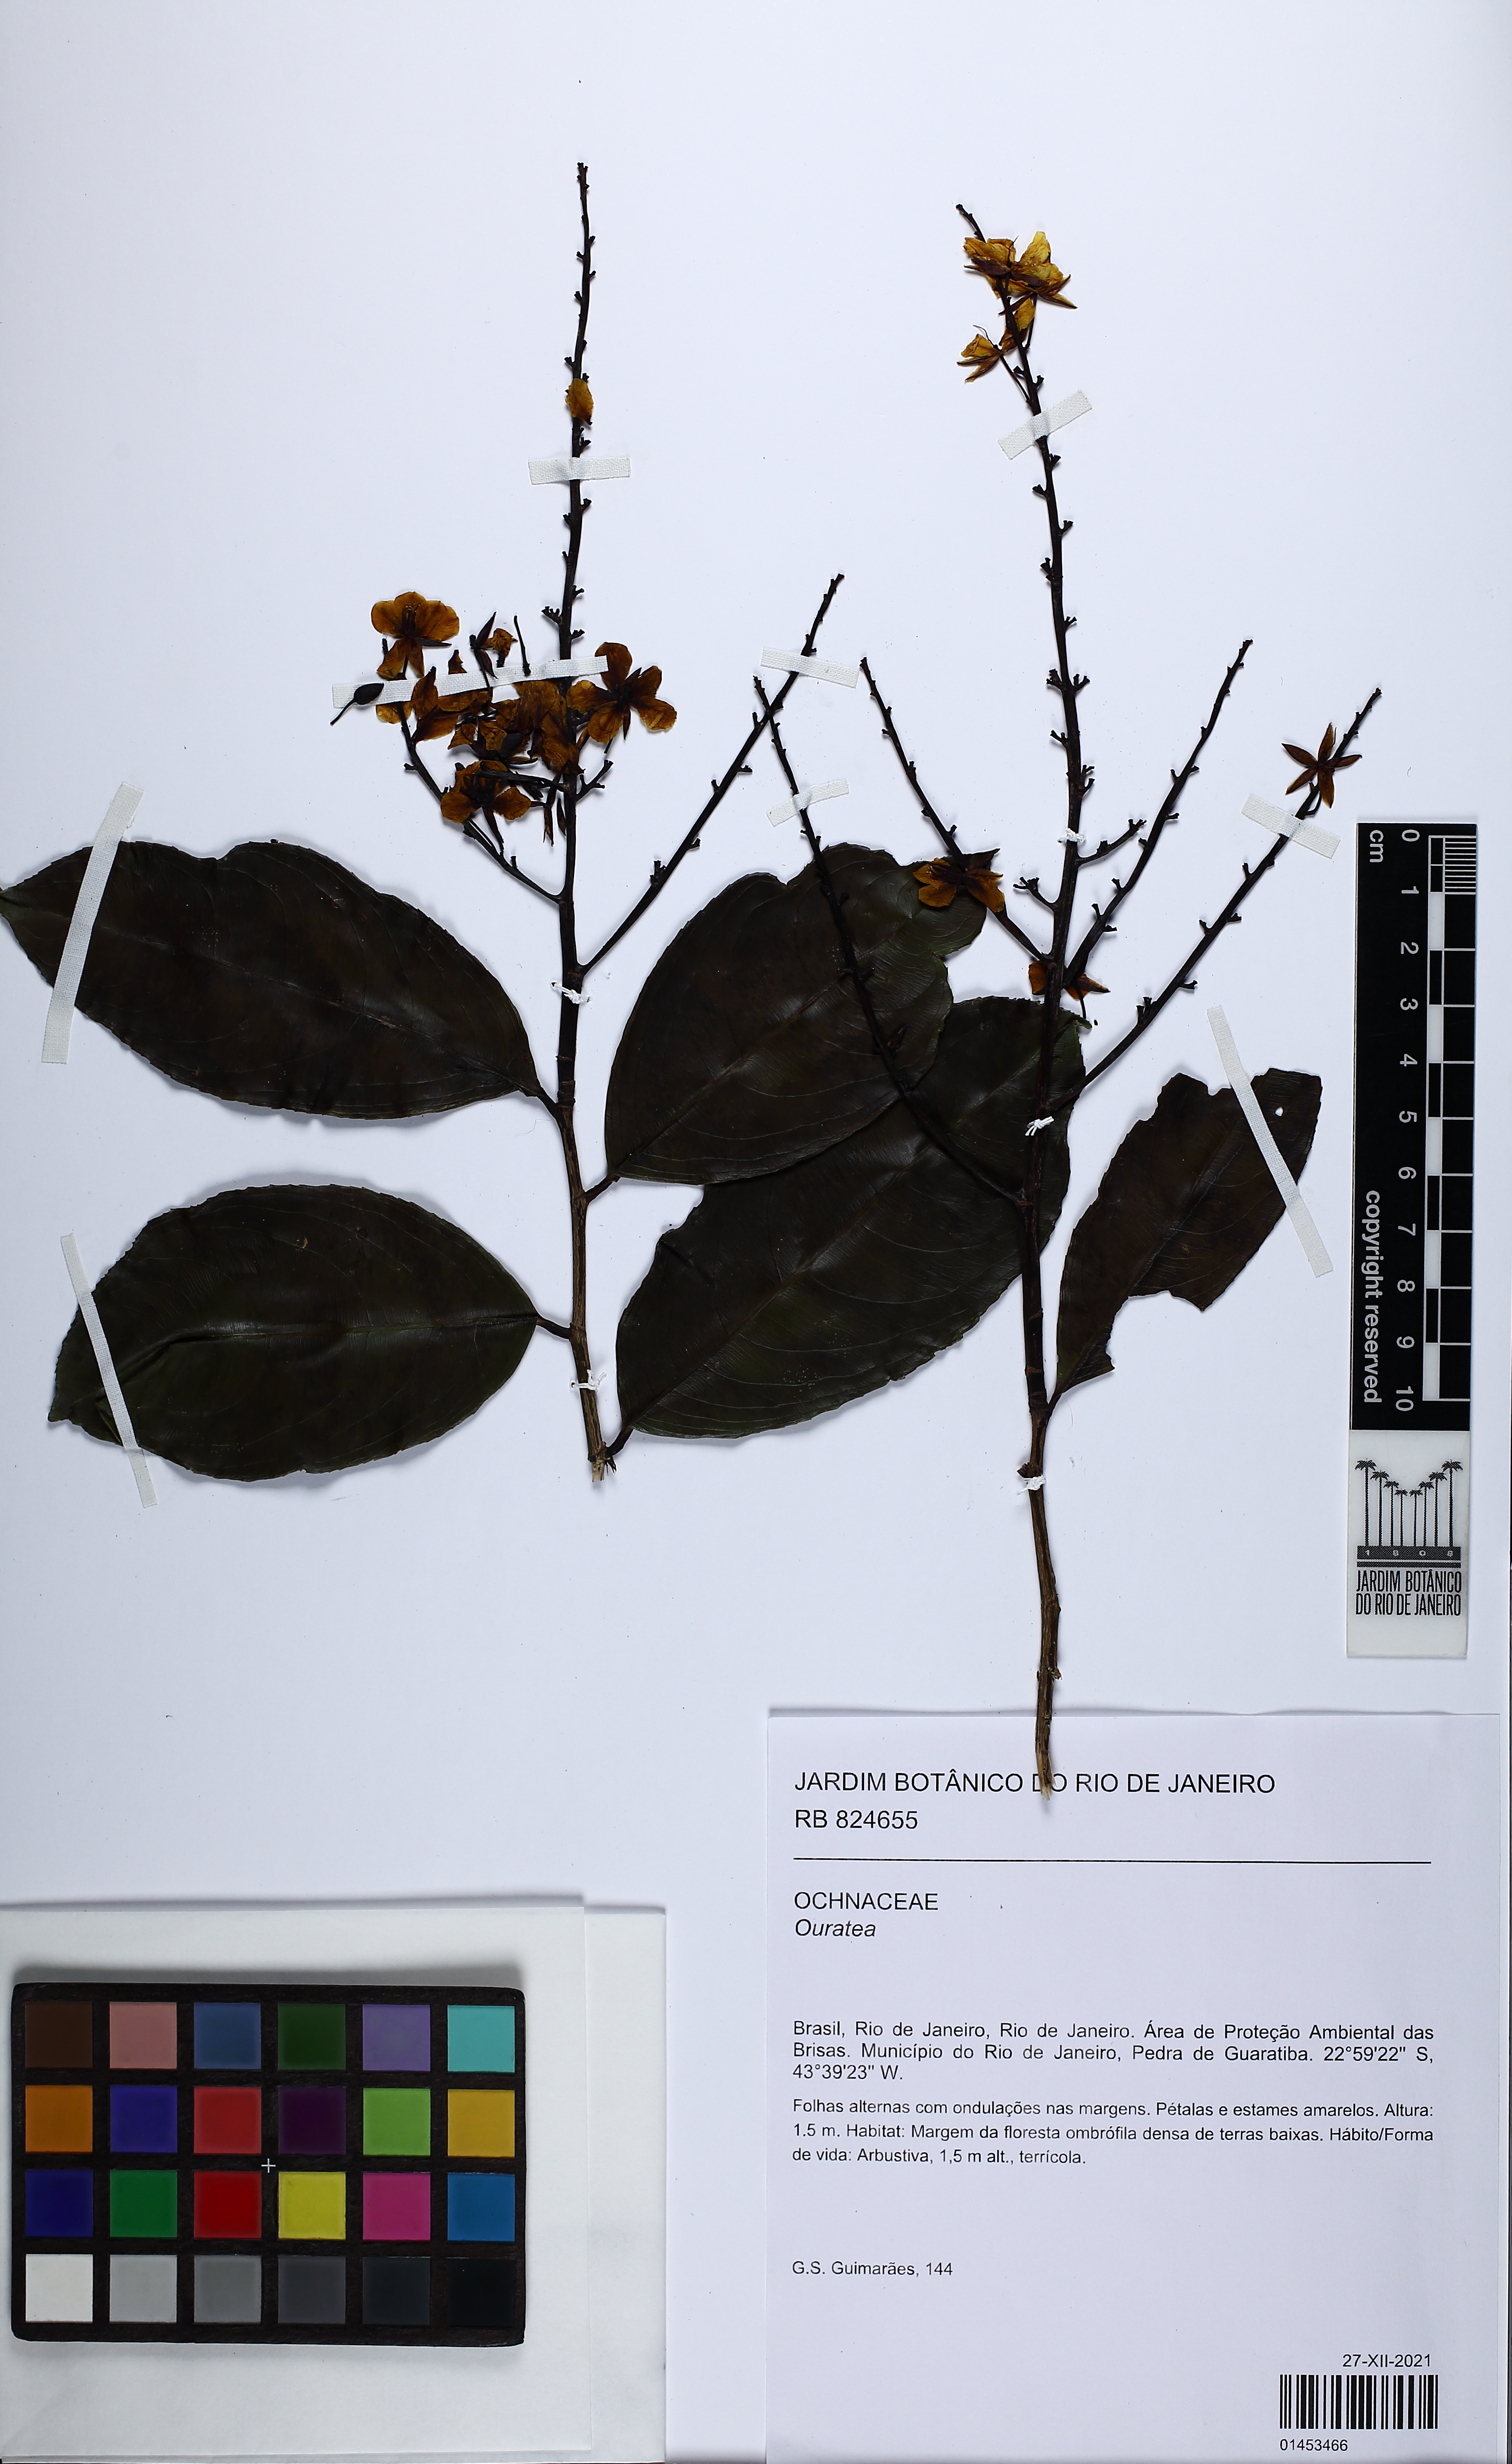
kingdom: Plantae
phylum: Tracheophyta
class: Magnoliopsida
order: Malpighiales
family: Ochnaceae
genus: Ouratea
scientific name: Ouratea
